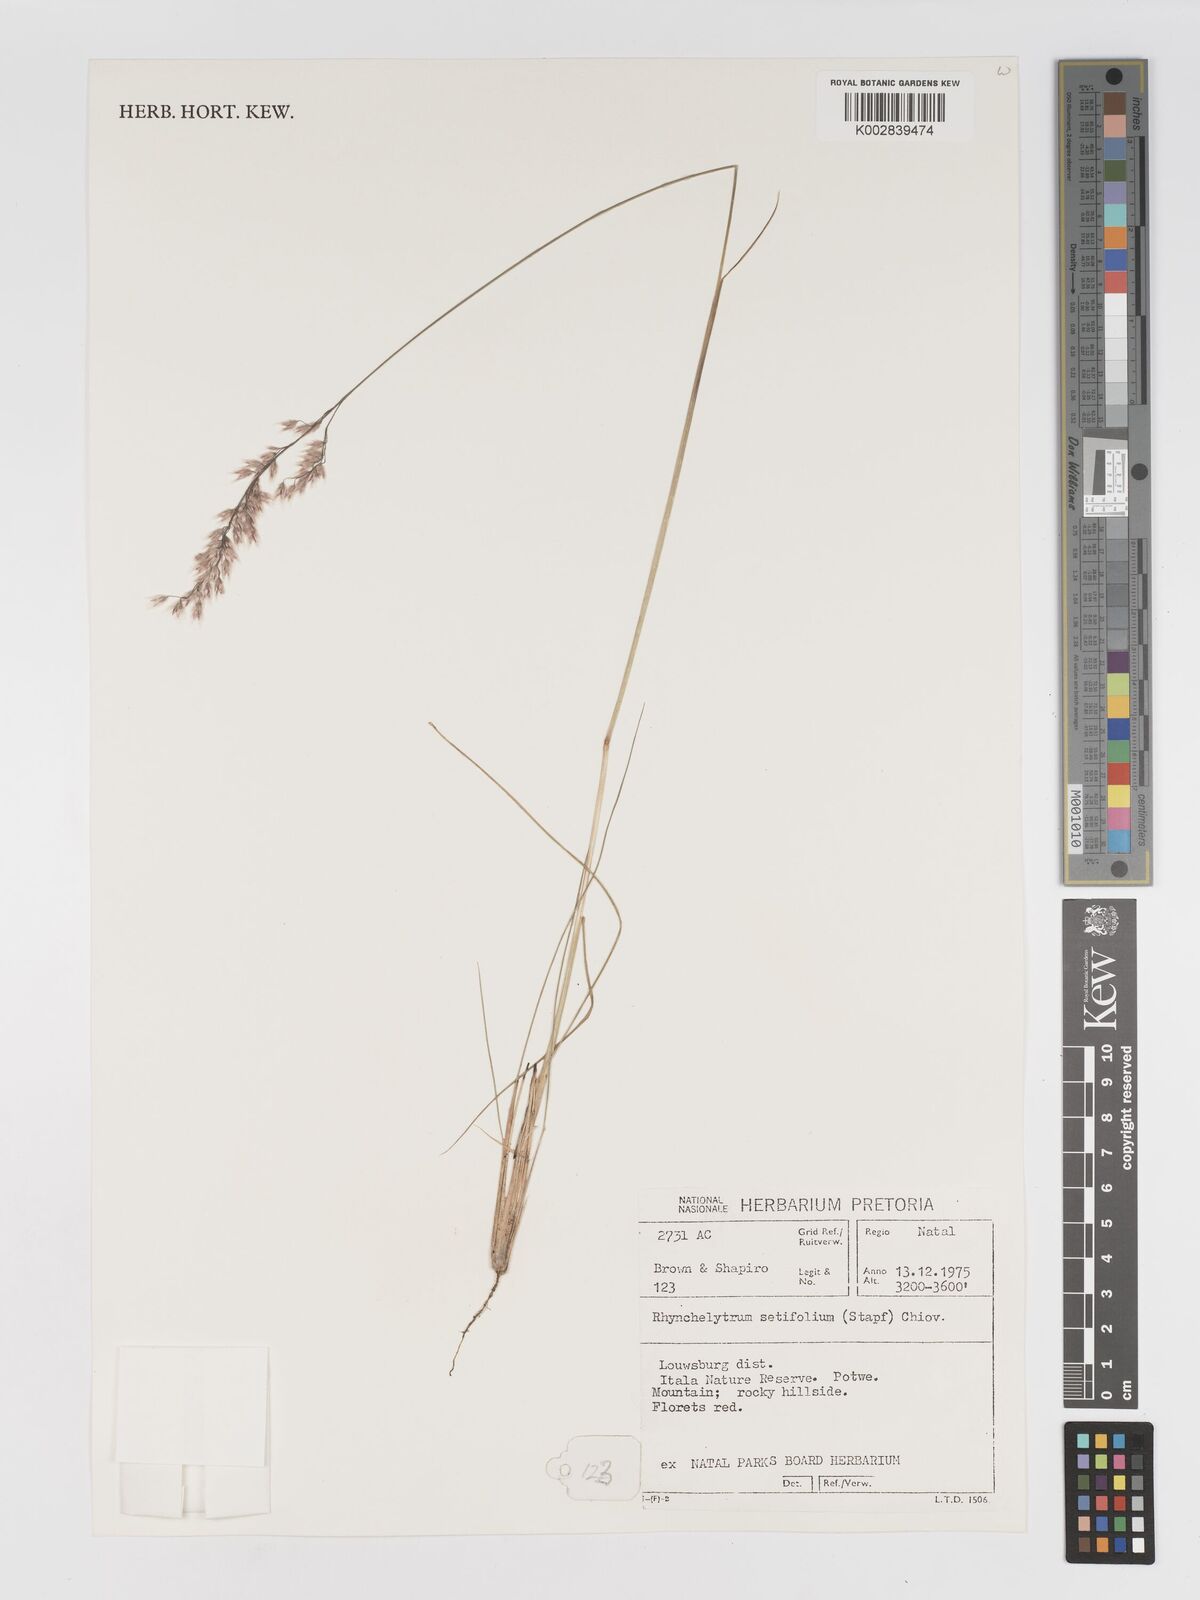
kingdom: Plantae
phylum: Tracheophyta
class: Liliopsida
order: Poales
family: Poaceae
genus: Melinis
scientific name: Melinis nerviglumis
